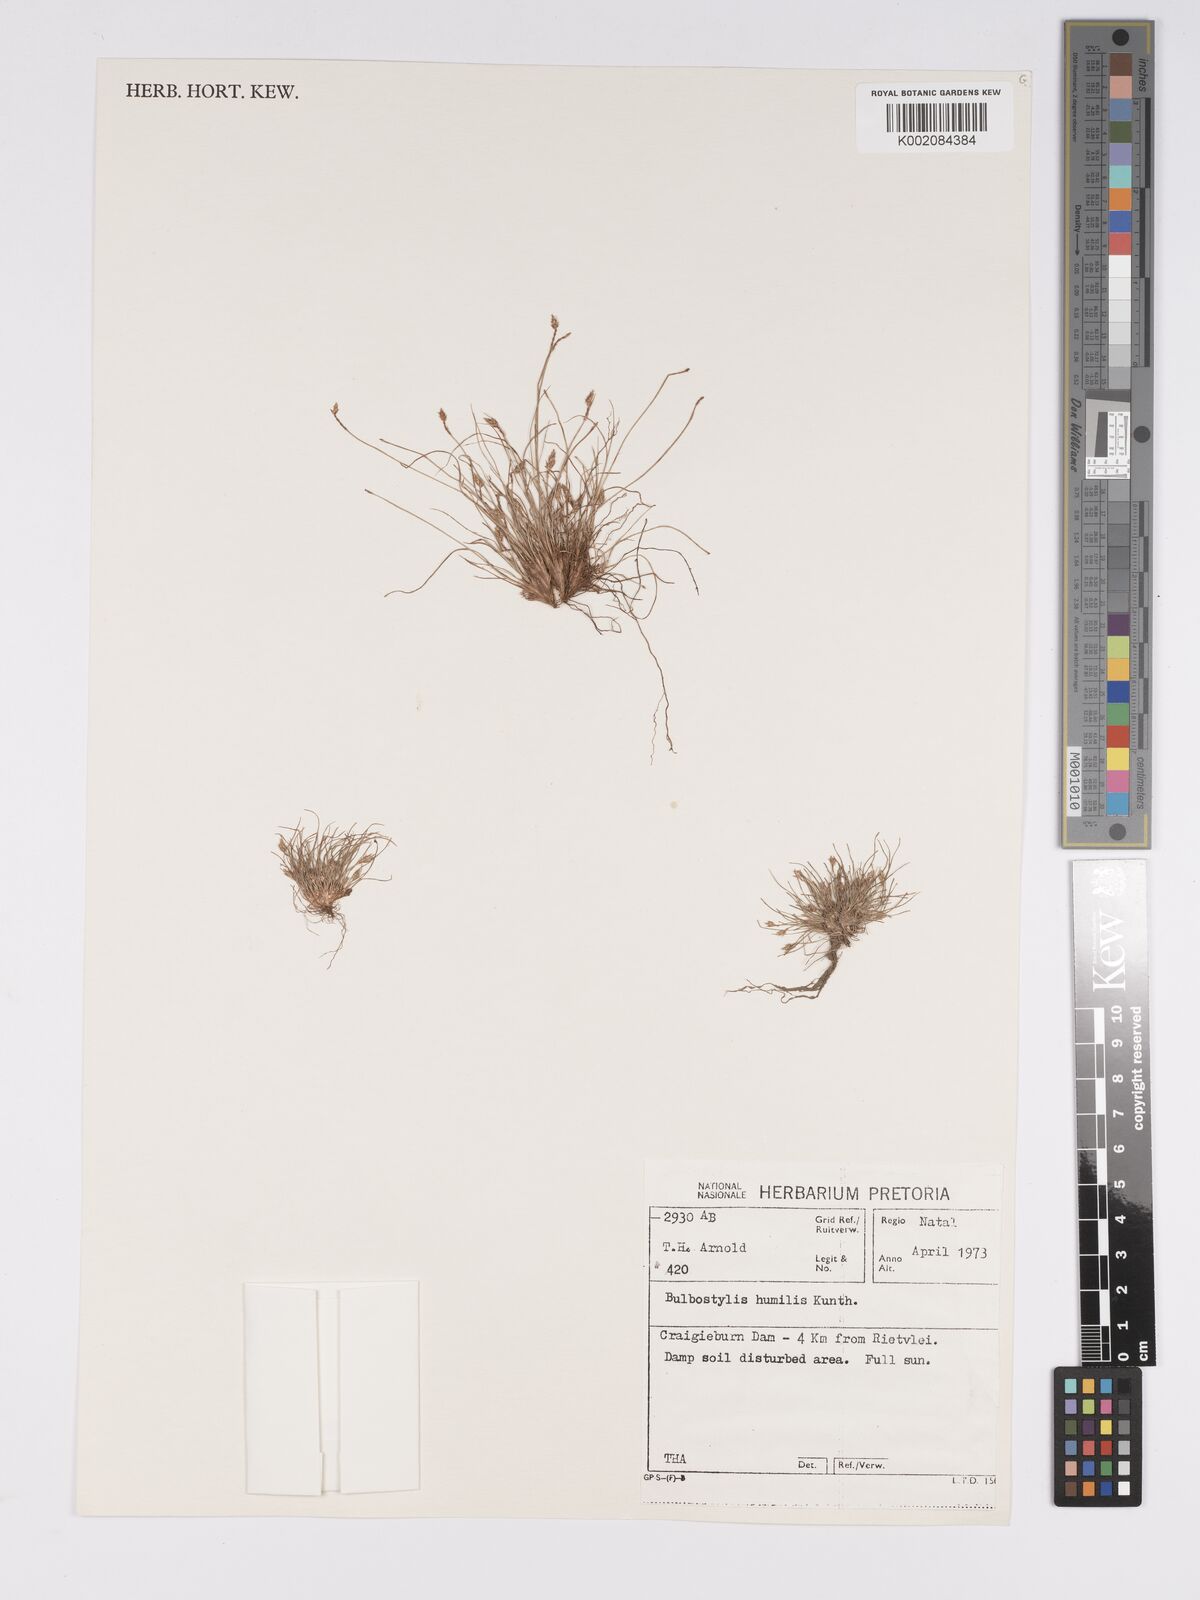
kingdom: Plantae
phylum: Tracheophyta
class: Liliopsida
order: Poales
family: Cyperaceae
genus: Bulbostylis
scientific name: Bulbostylis humilis
